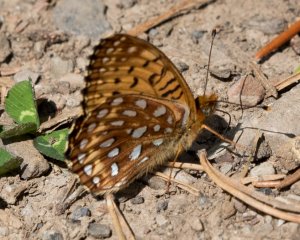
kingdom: Animalia
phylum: Arthropoda
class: Insecta
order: Lepidoptera
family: Nymphalidae
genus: Speyeria
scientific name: Speyeria hydaspe
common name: Hydaspe Fritillary
